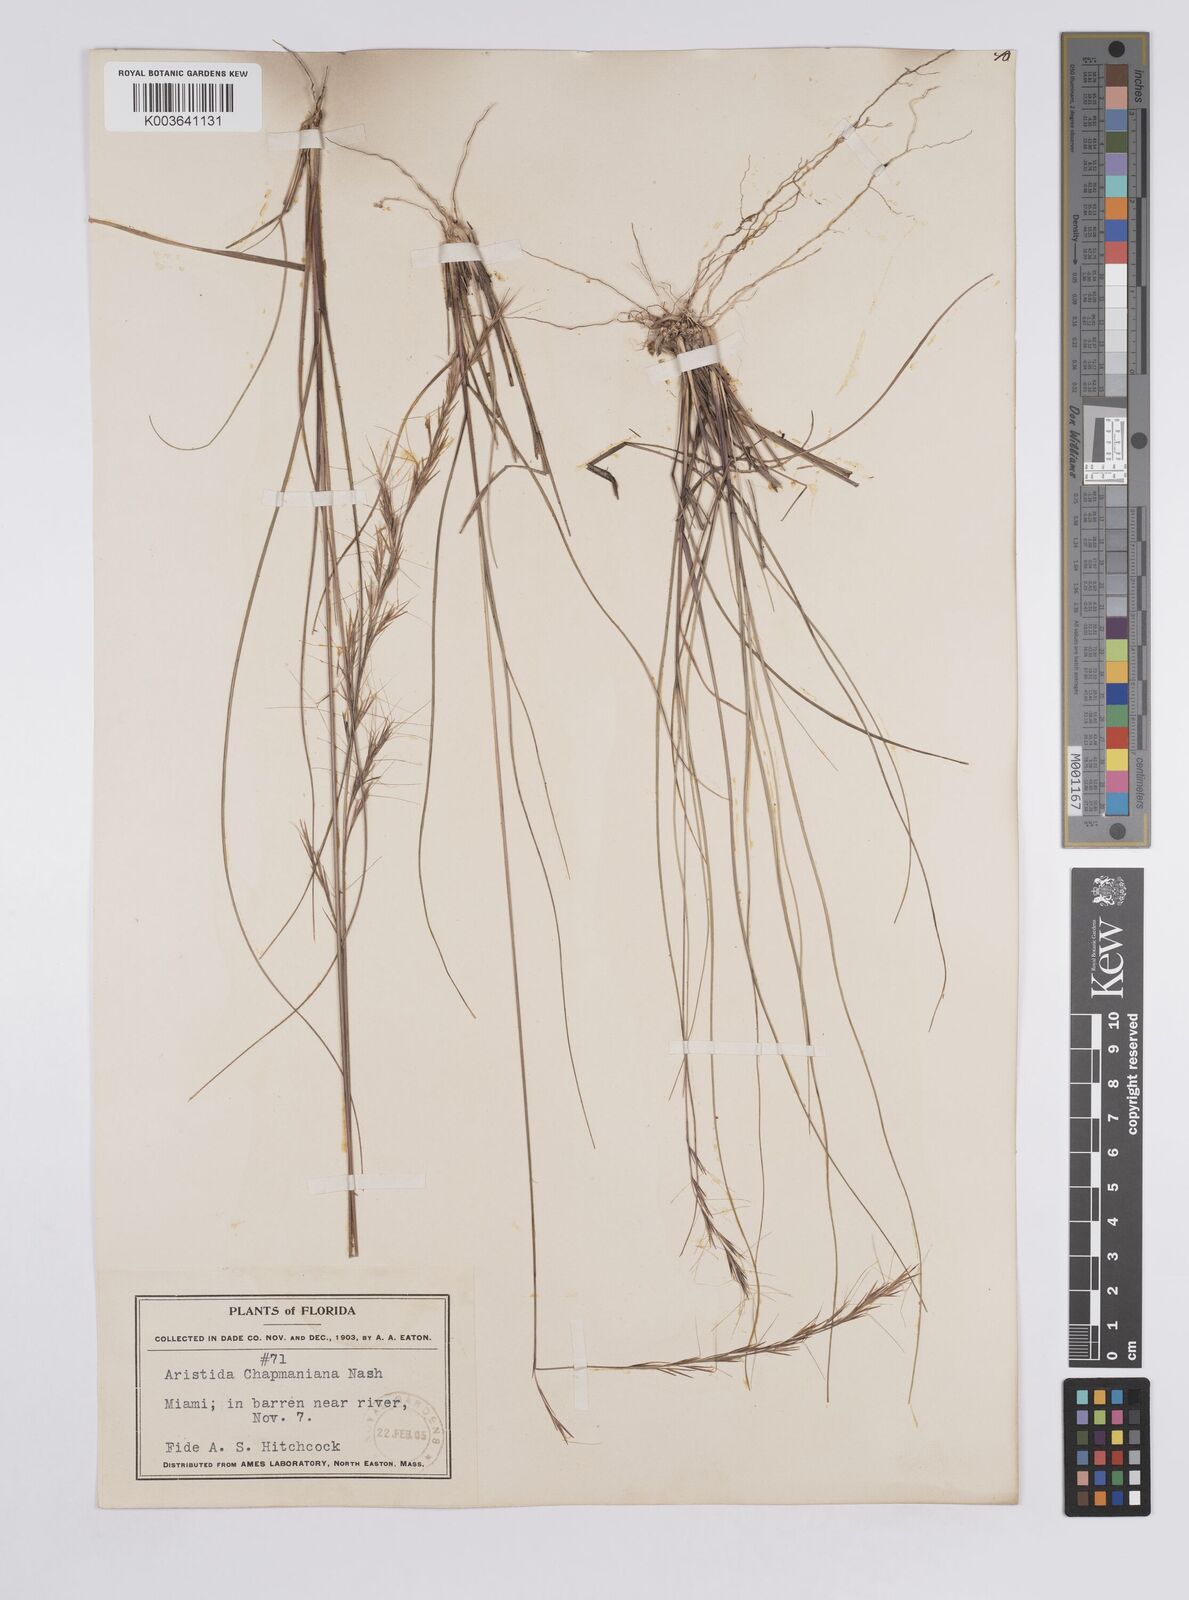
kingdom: Plantae
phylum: Tracheophyta
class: Liliopsida
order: Poales
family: Poaceae
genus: Aristida
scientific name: Aristida palustris
